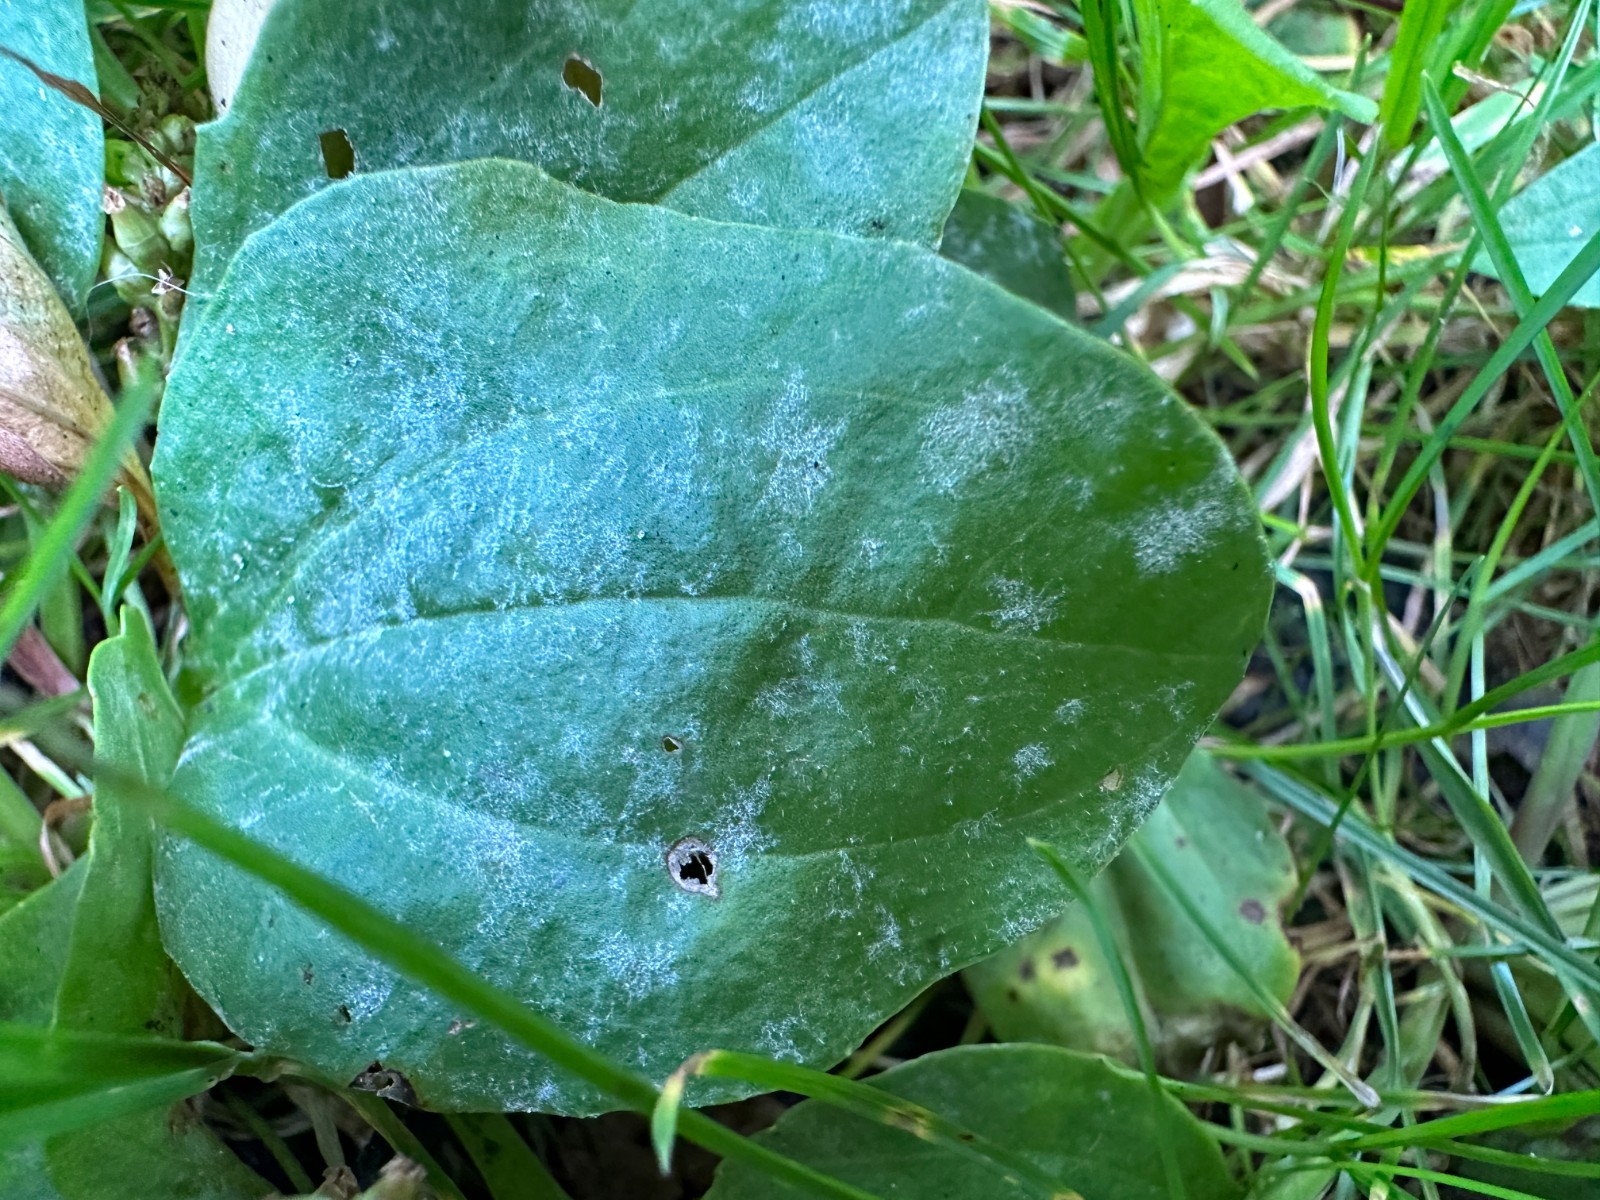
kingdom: Fungi
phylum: Ascomycota
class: Leotiomycetes
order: Helotiales
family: Erysiphaceae
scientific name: Erysiphaceae
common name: meldugfamilien
